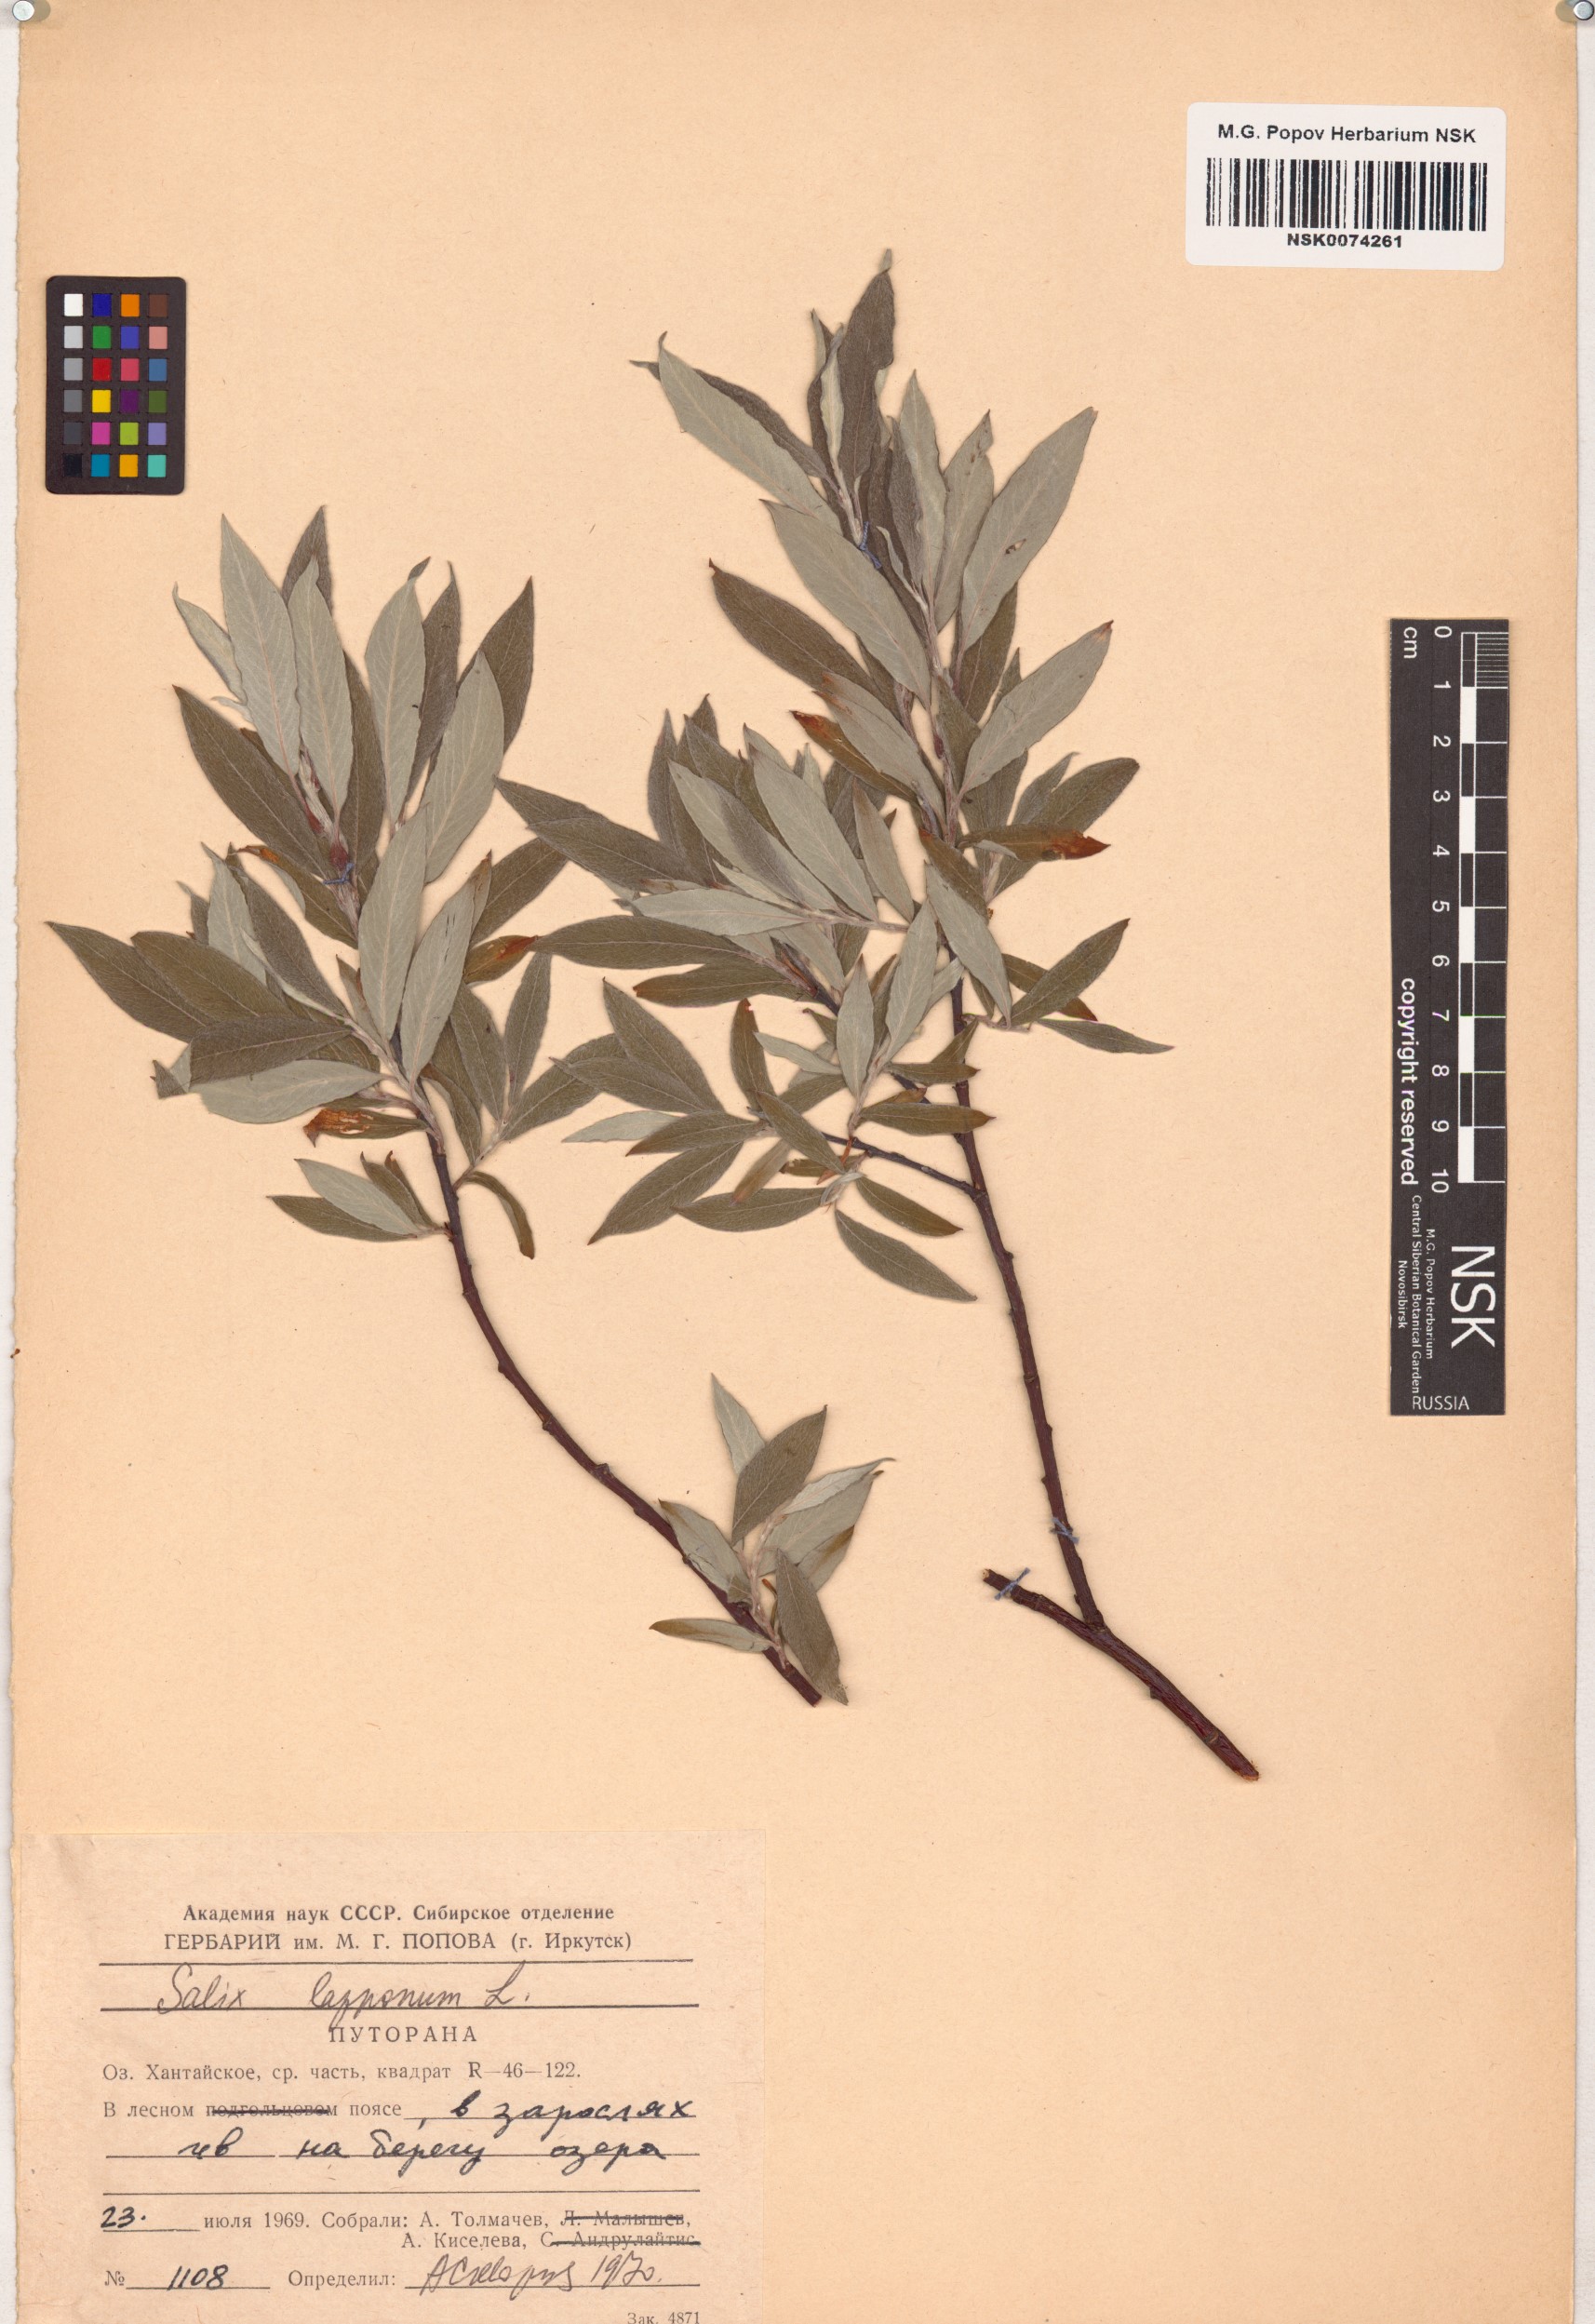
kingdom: Plantae
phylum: Tracheophyta
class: Magnoliopsida
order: Malpighiales
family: Salicaceae
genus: Salix
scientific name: Salix lapponum
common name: Downy willow
